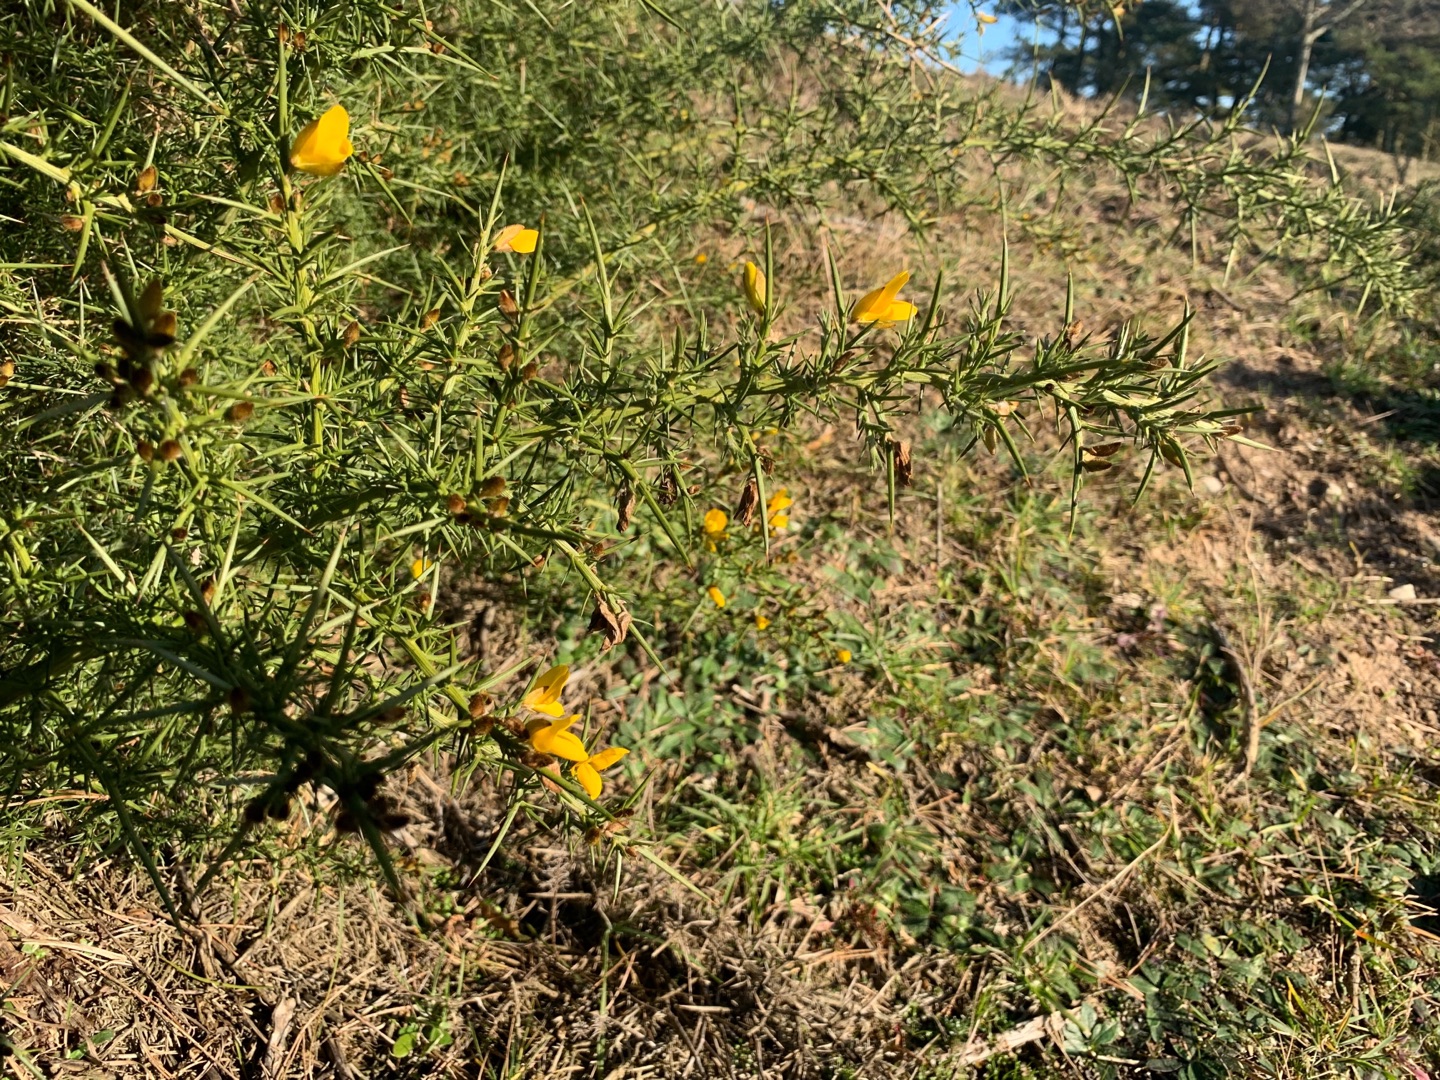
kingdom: Plantae
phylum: Tracheophyta
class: Magnoliopsida
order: Fabales
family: Fabaceae
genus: Ulex
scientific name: Ulex europaeus
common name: Tornblad
